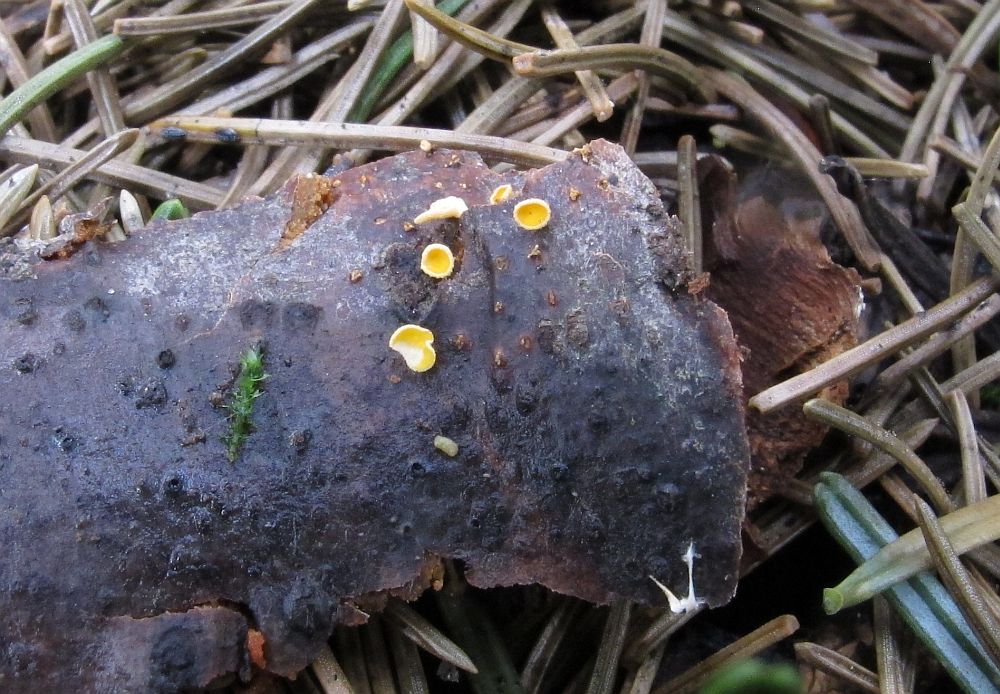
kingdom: Fungi
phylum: Ascomycota
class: Leotiomycetes
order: Helotiales
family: Lachnaceae
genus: Lachnellula
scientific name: Lachnellula calyciformis
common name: ædelgran-frynseskive
